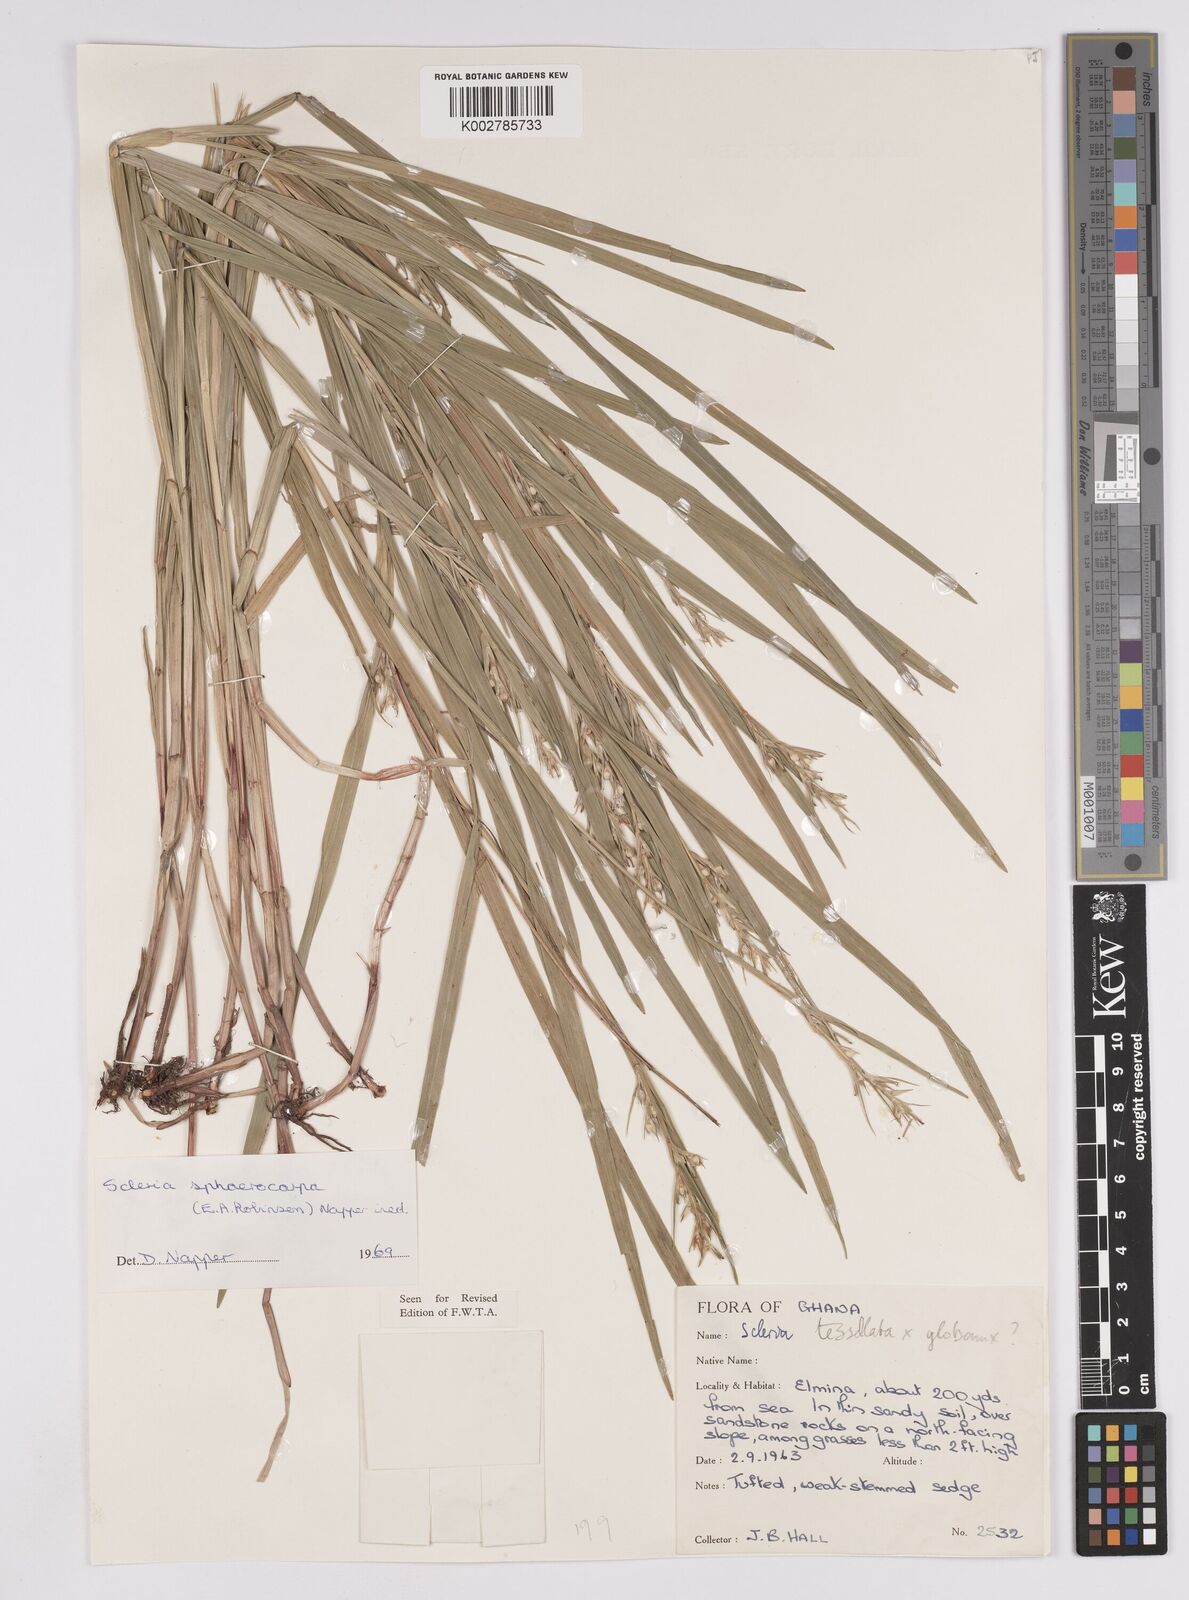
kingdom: Plantae
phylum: Tracheophyta
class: Liliopsida
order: Poales
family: Cyperaceae
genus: Scleria
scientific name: Scleria tessellata
